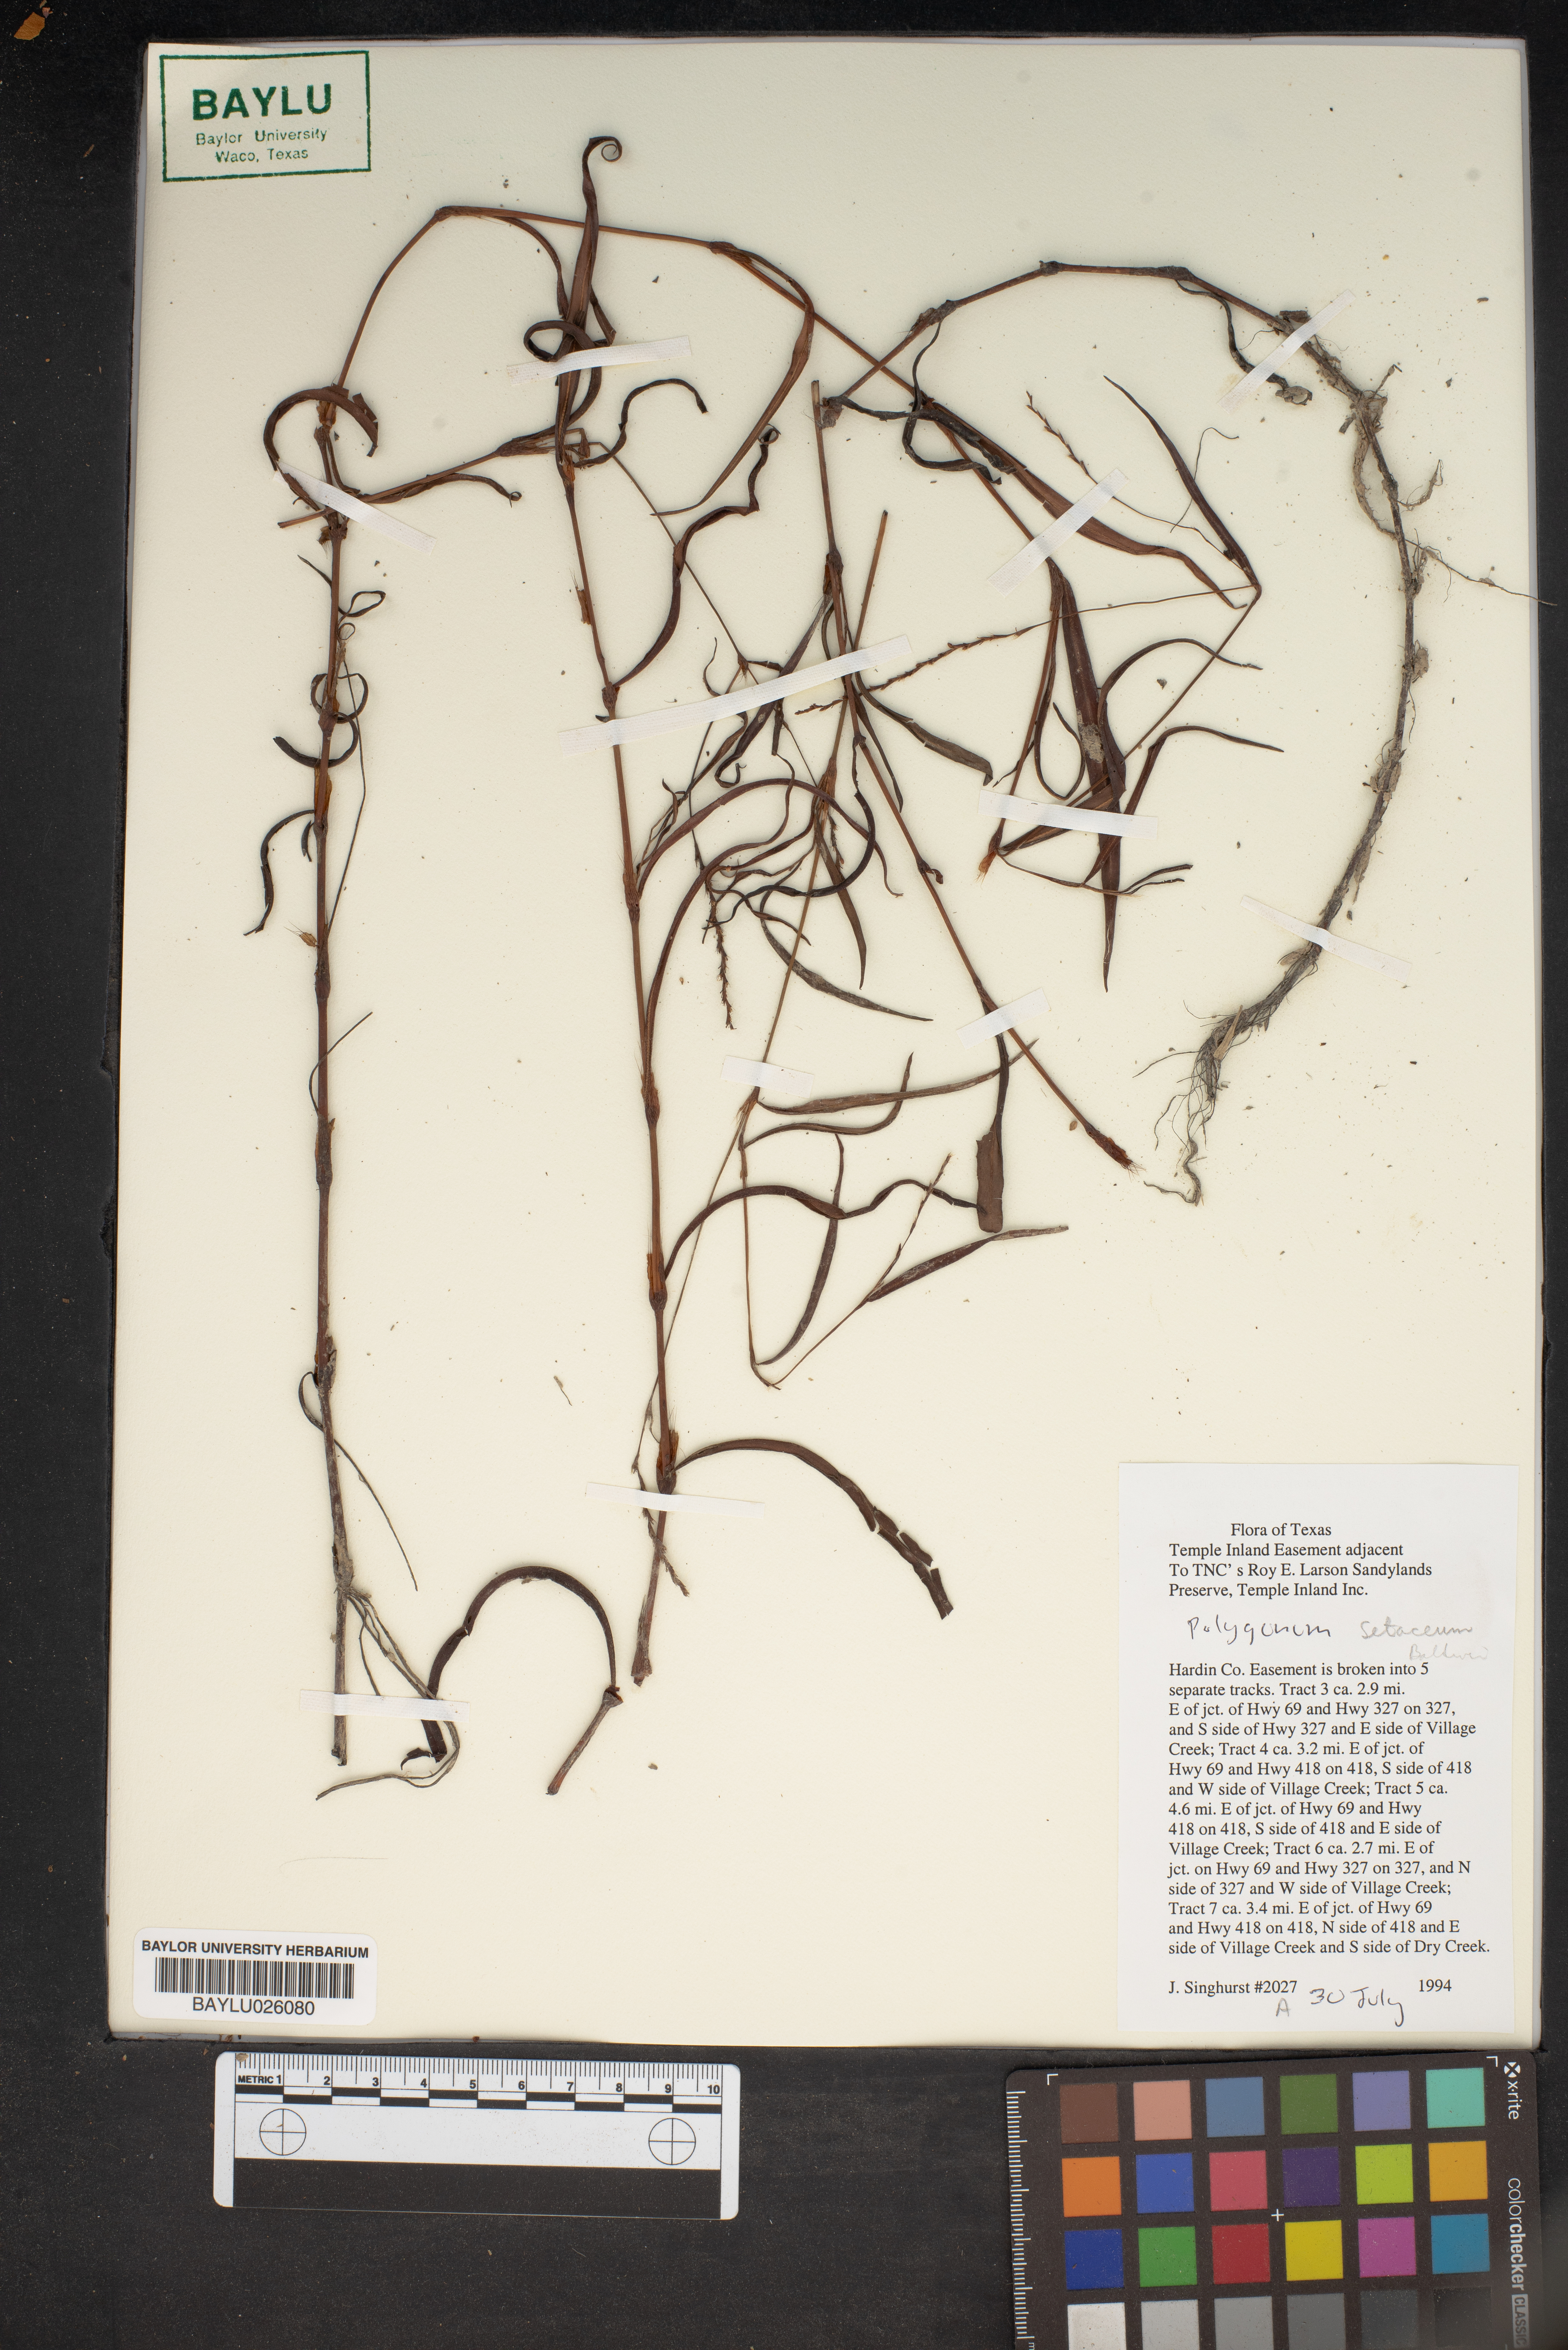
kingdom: Plantae
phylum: Tracheophyta
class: Magnoliopsida
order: Caryophyllales
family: Polygonaceae
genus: Persicaria
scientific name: Persicaria setacea
